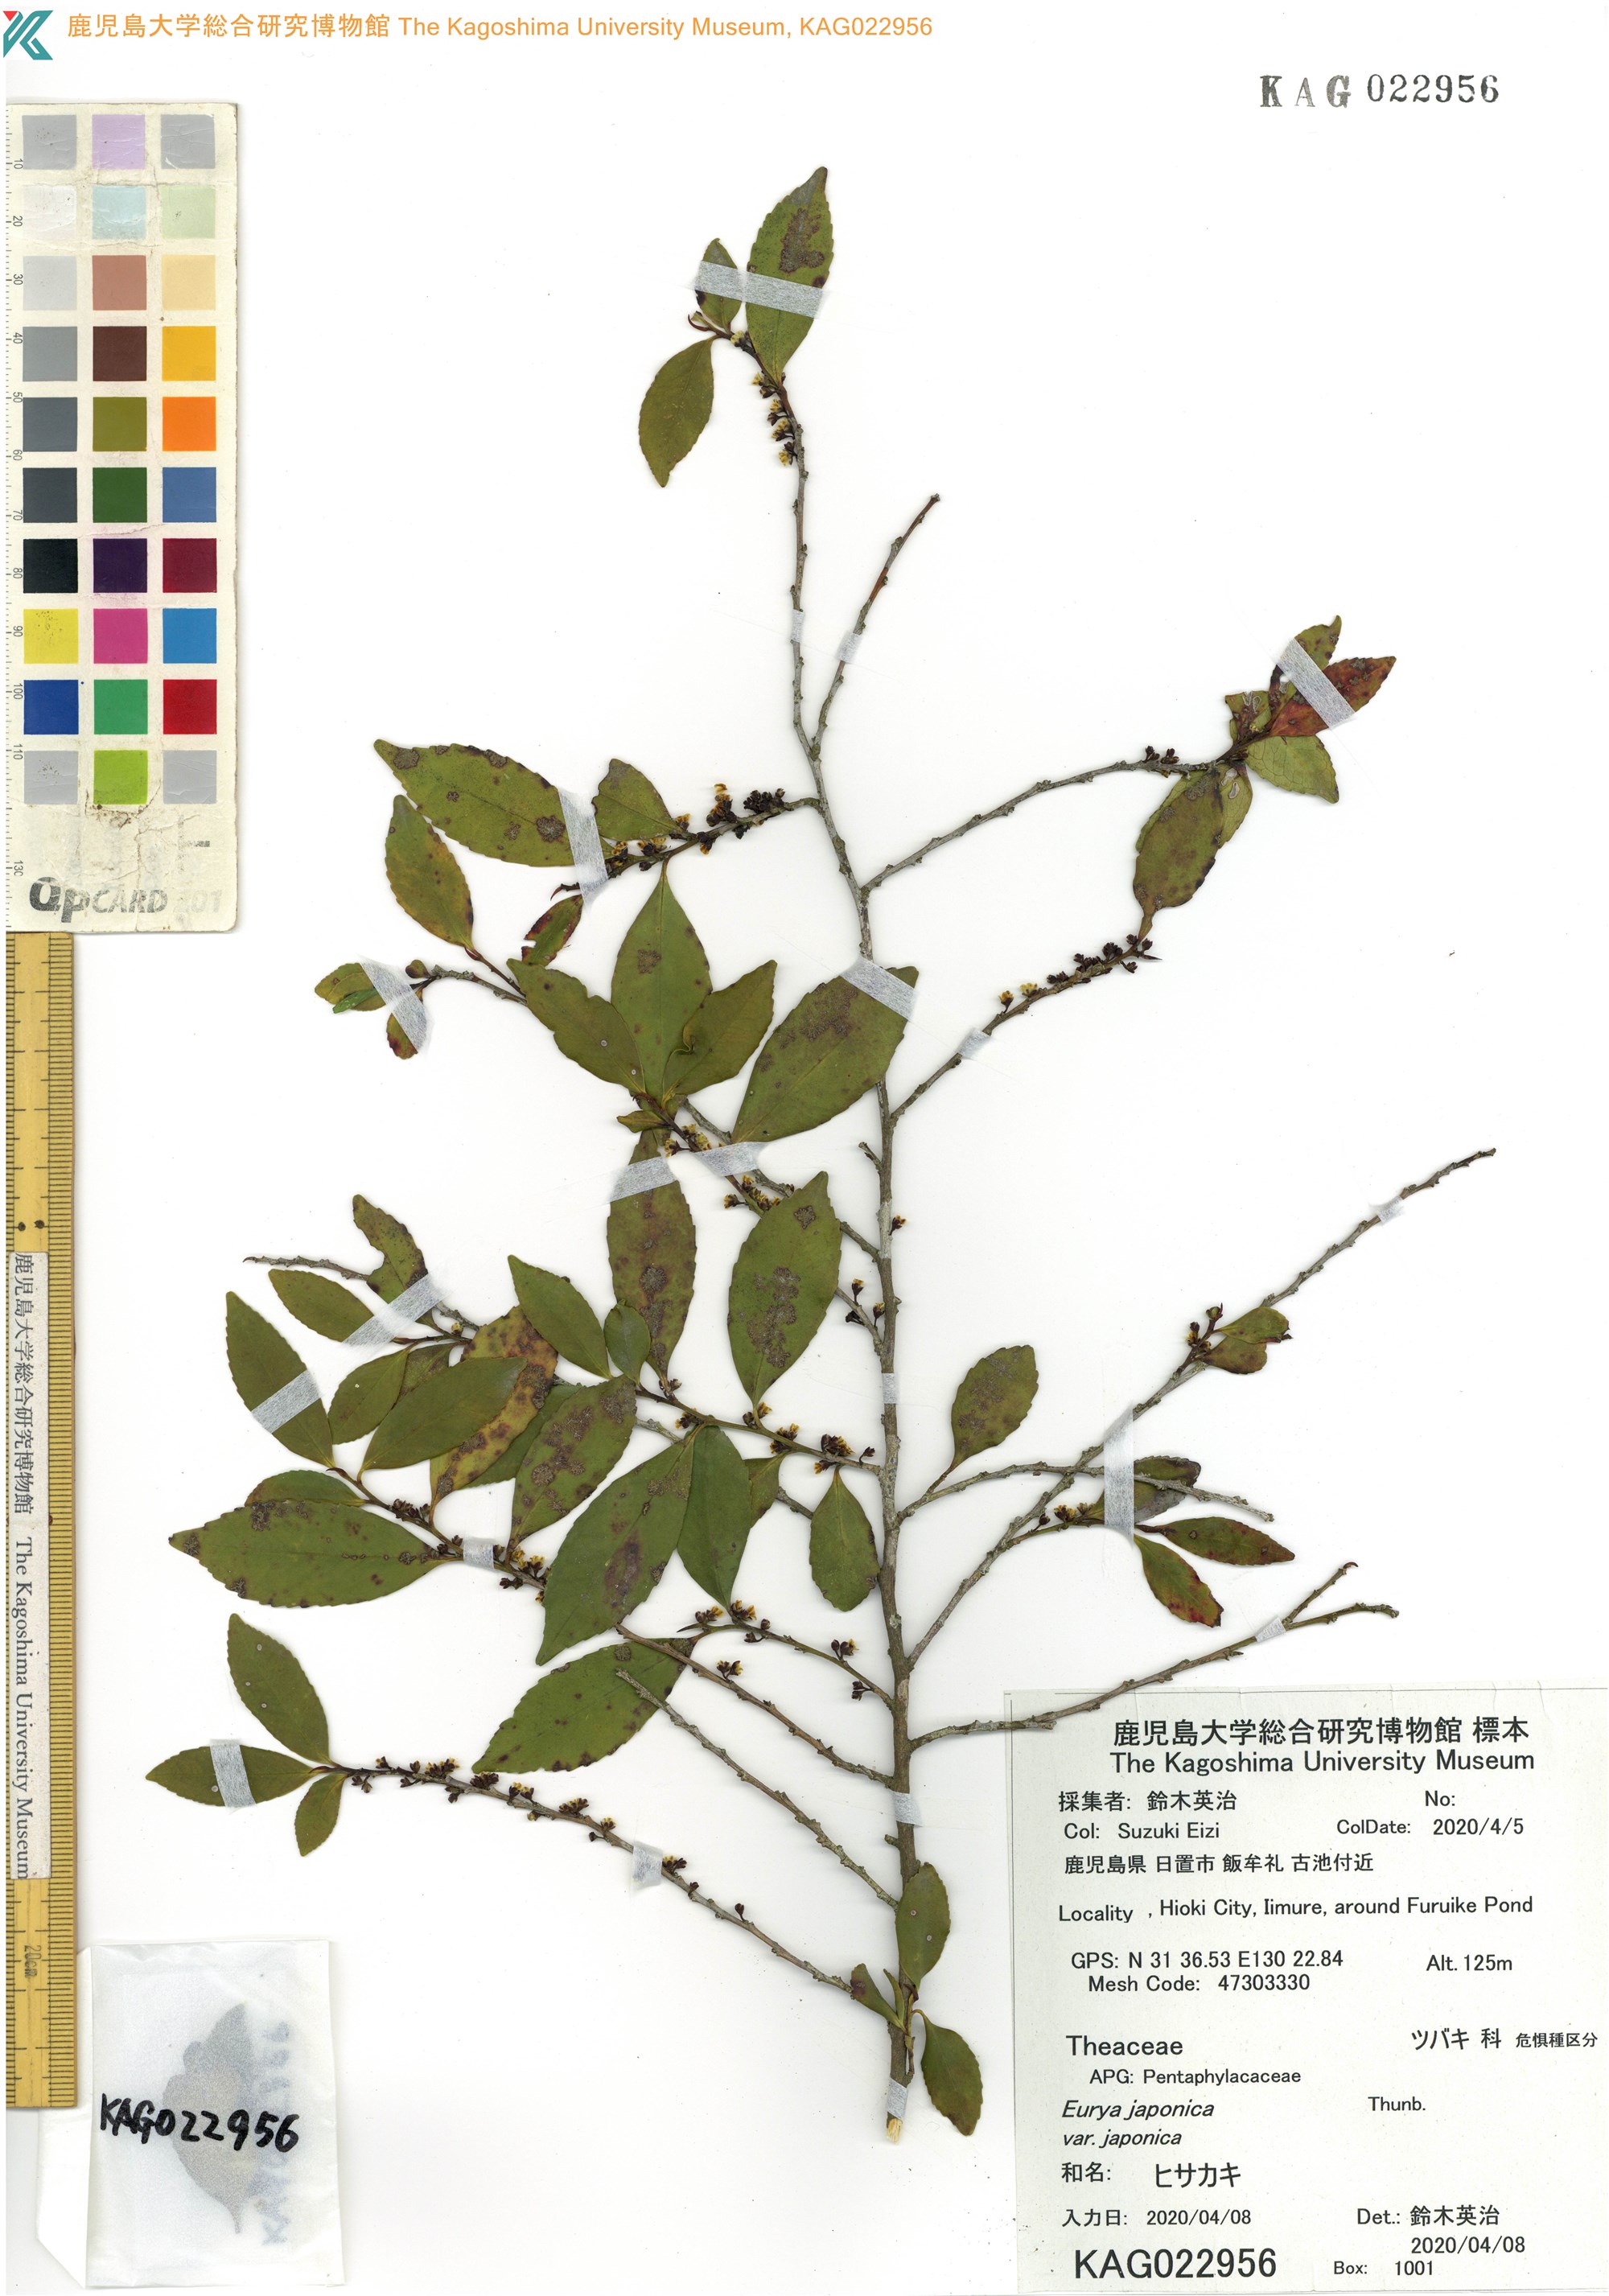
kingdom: Plantae
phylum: Tracheophyta
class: Magnoliopsida
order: Ericales
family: Pentaphylacaceae
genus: Eurya
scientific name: Eurya japonica
